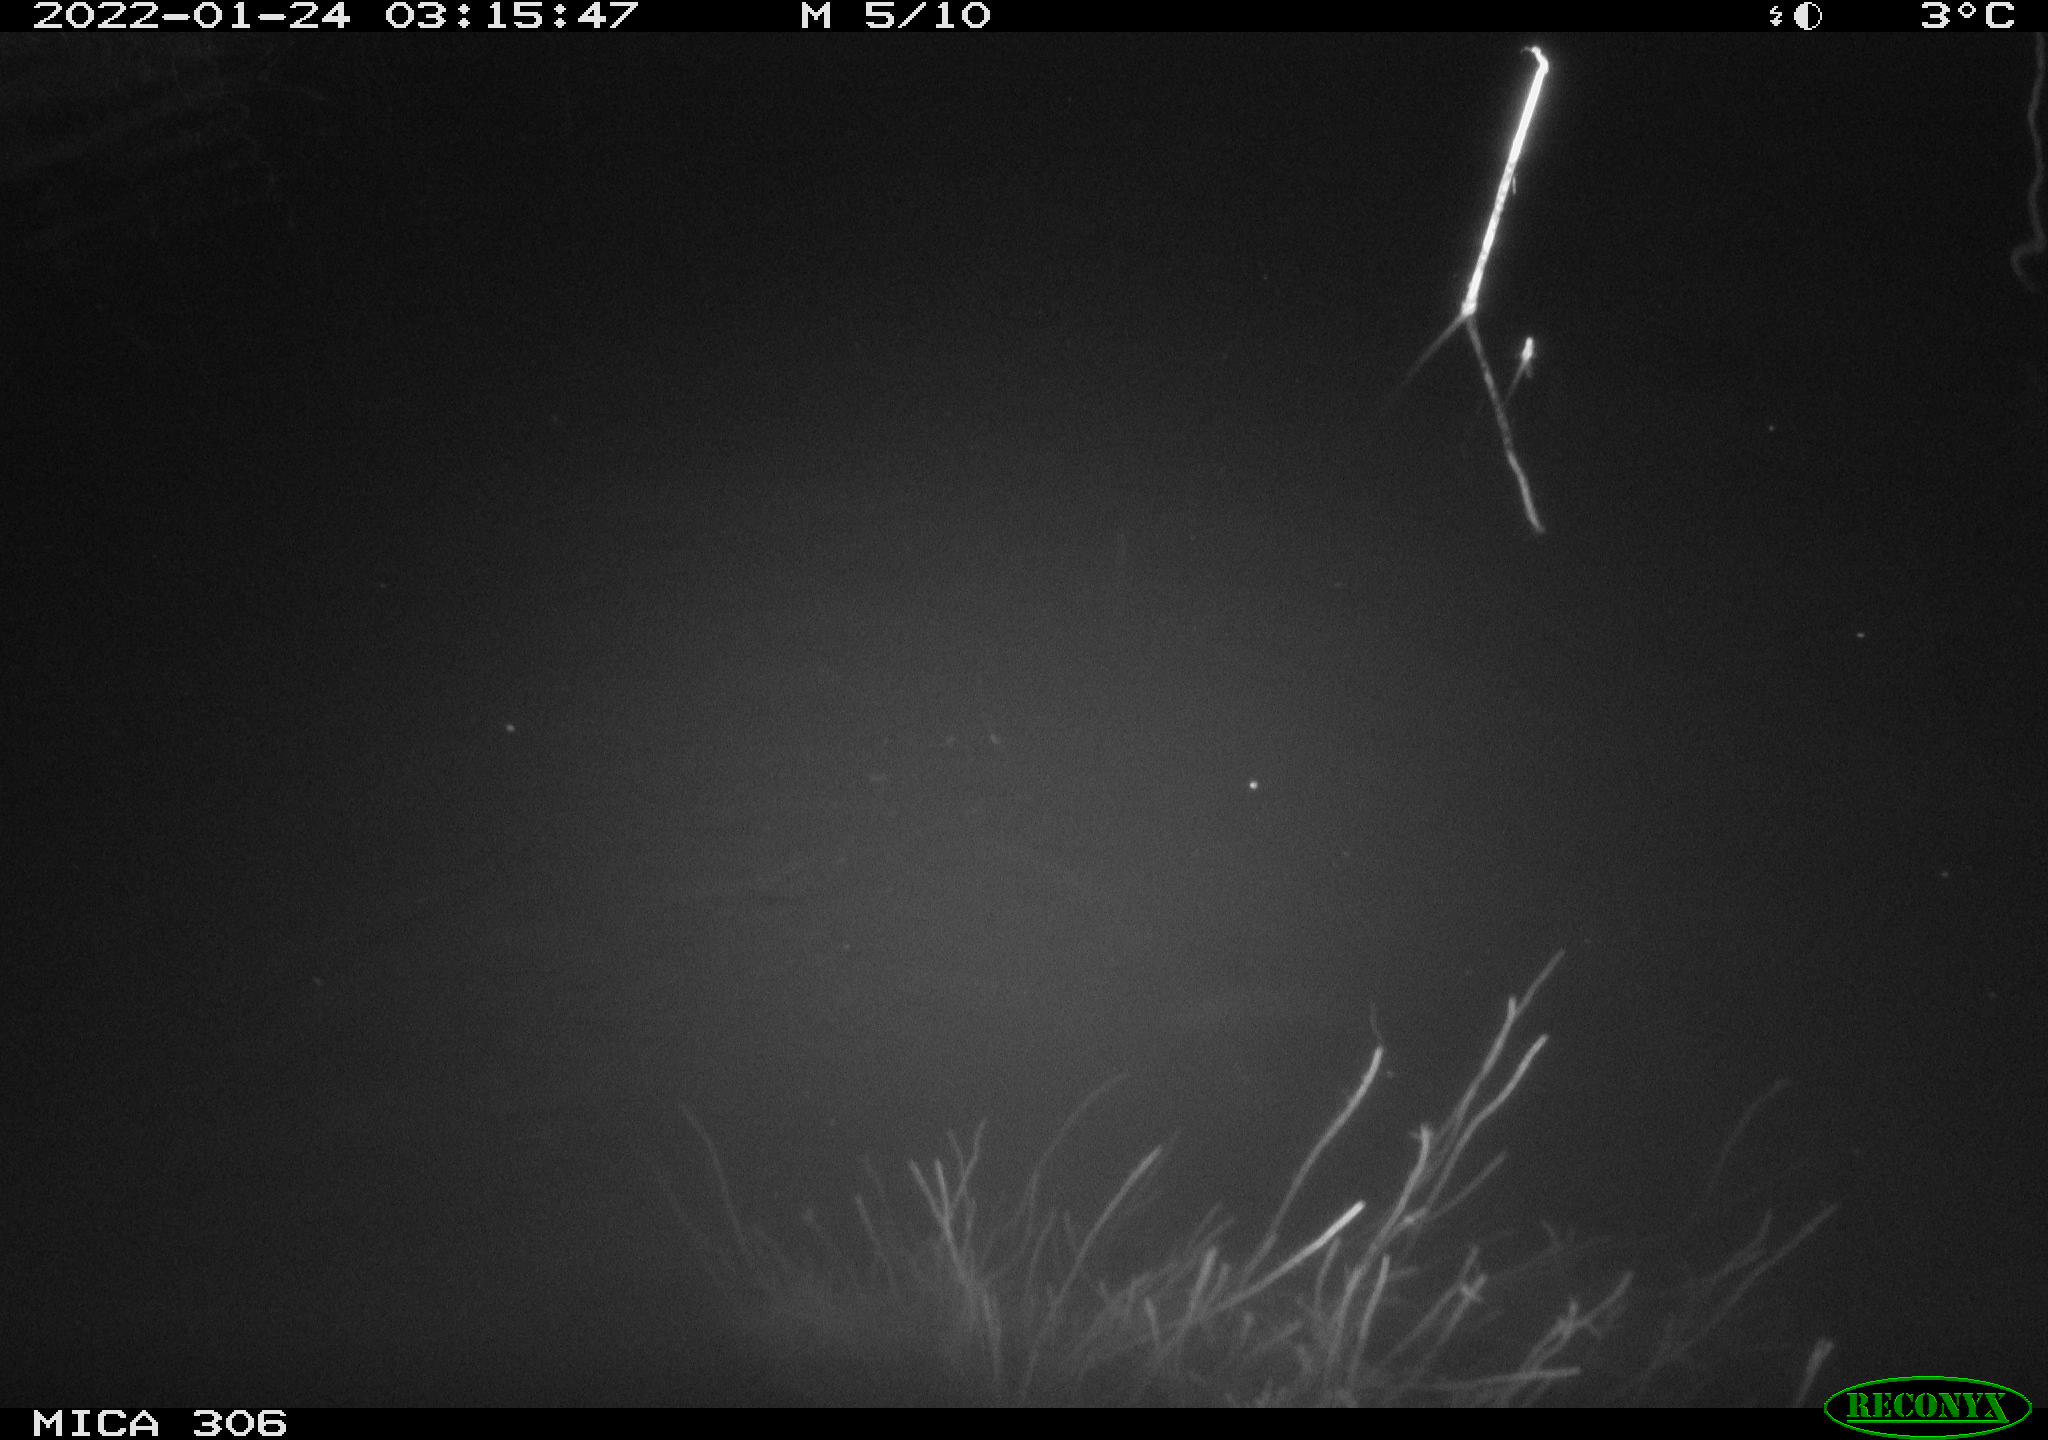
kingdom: Animalia
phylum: Chordata
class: Mammalia
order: Rodentia
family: Cricetidae
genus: Ondatra
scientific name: Ondatra zibethicus
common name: Muskrat
